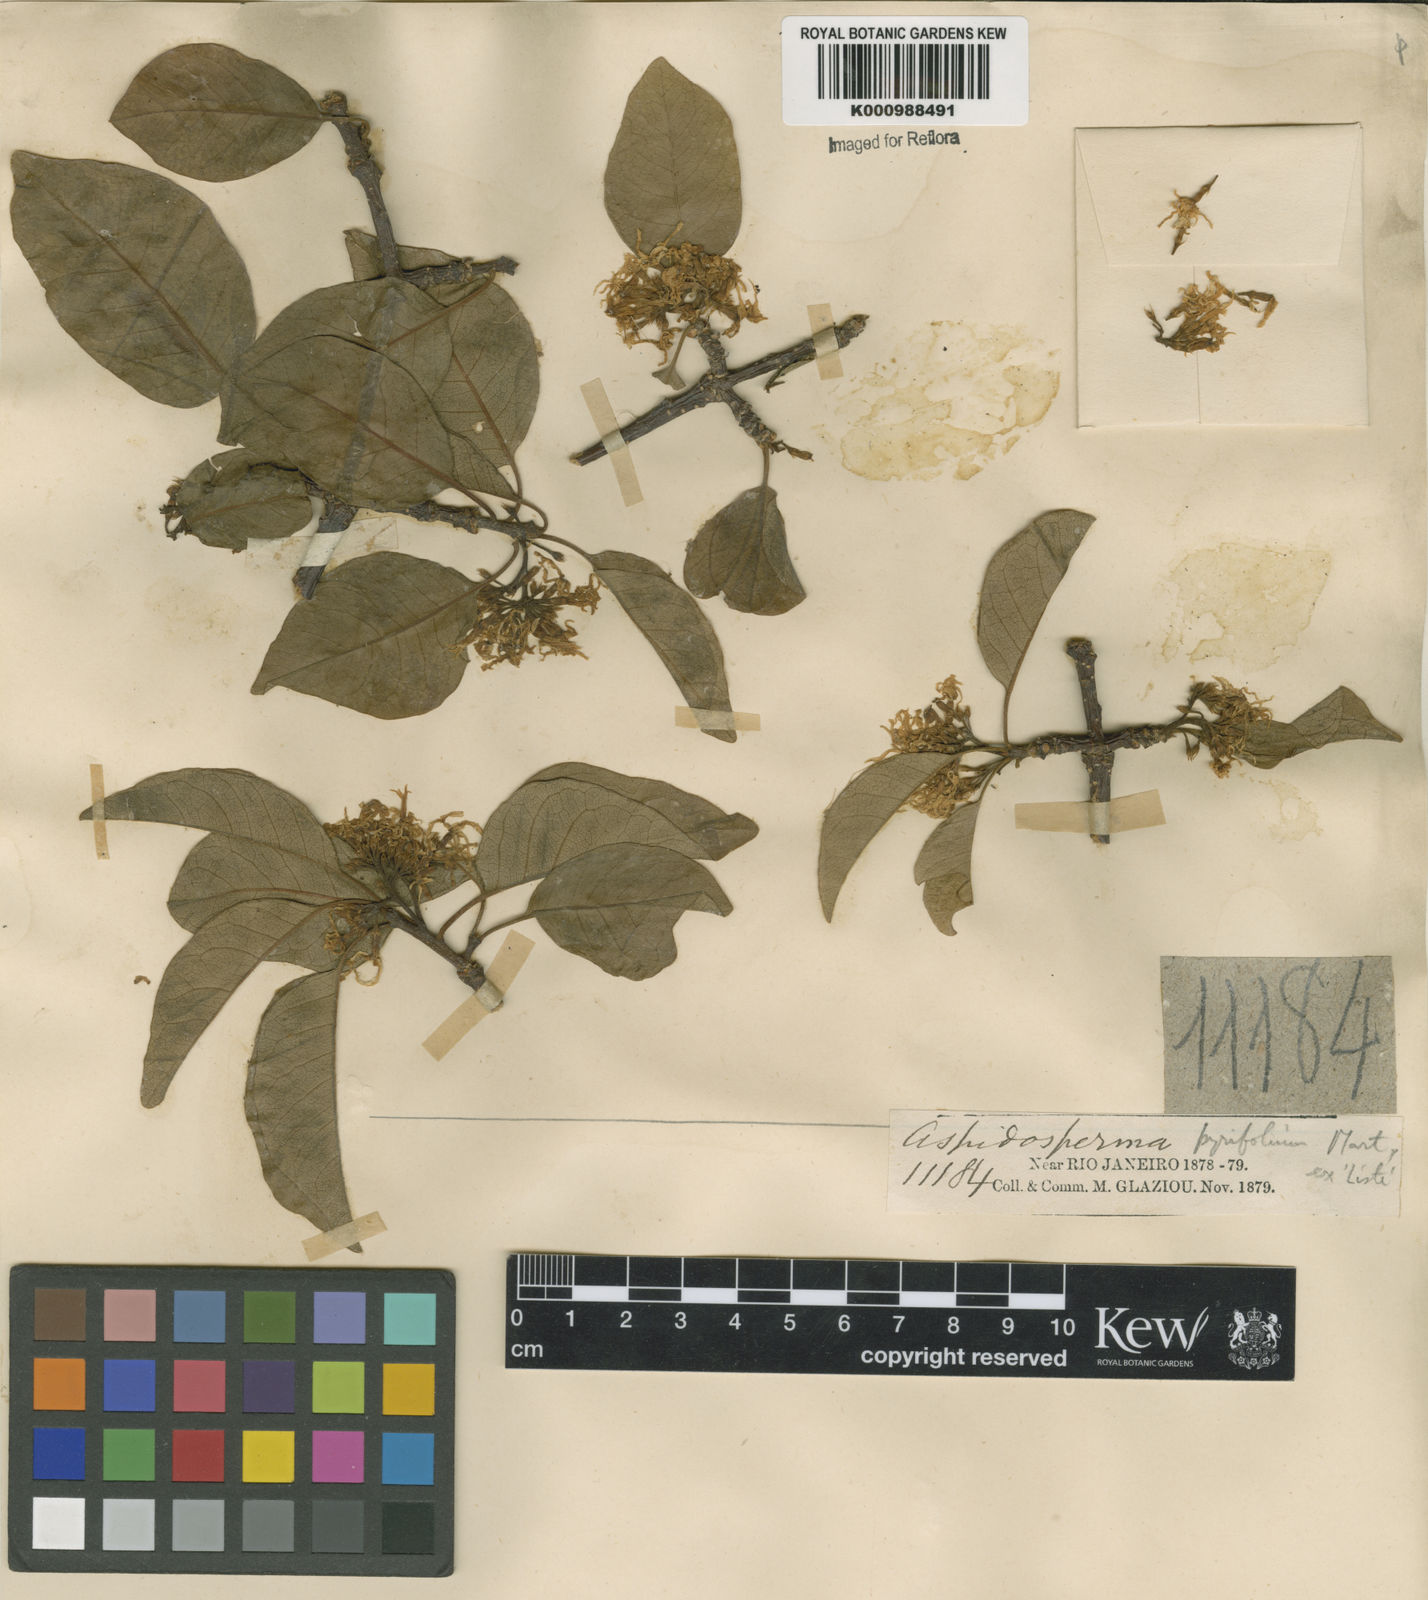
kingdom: Plantae
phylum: Tracheophyta
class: Magnoliopsida
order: Gentianales
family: Apocynaceae
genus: Aspidosperma
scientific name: Aspidosperma pyrifolium
